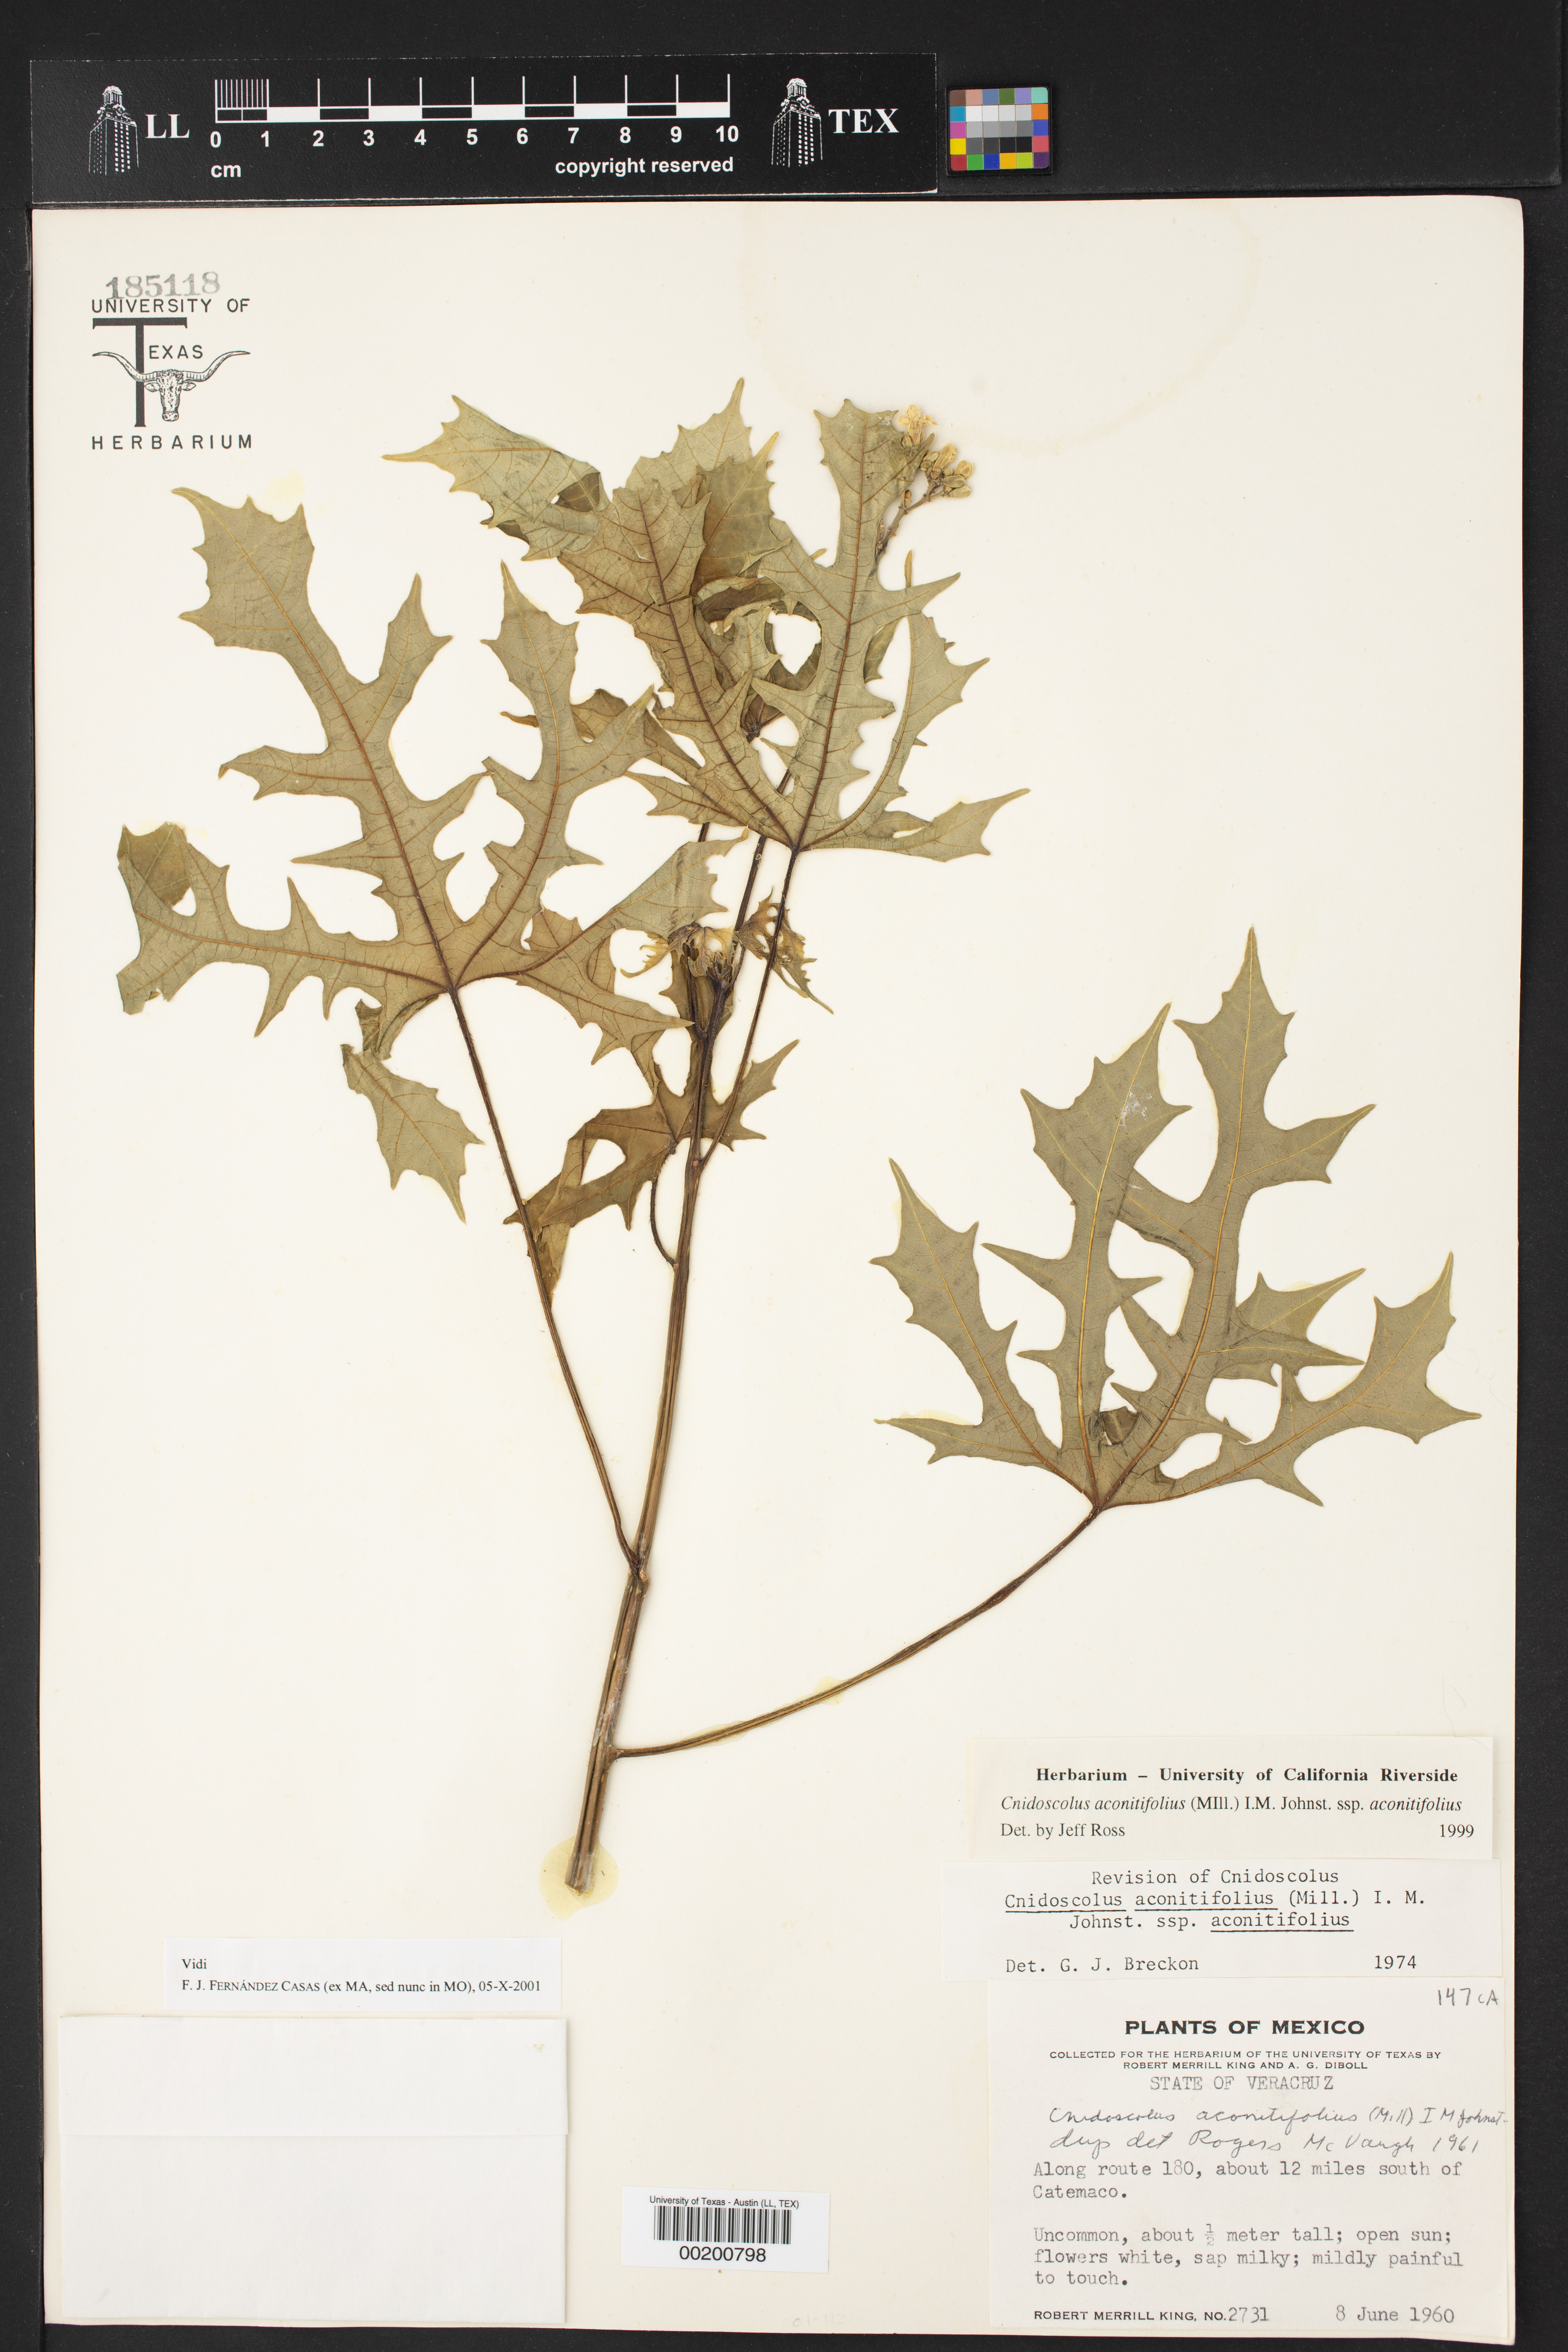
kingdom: Plantae
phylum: Tracheophyta
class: Magnoliopsida
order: Malpighiales
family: Euphorbiaceae
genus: Cnidoscolus
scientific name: Cnidoscolus aconitifolius
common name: Cabbage-star
